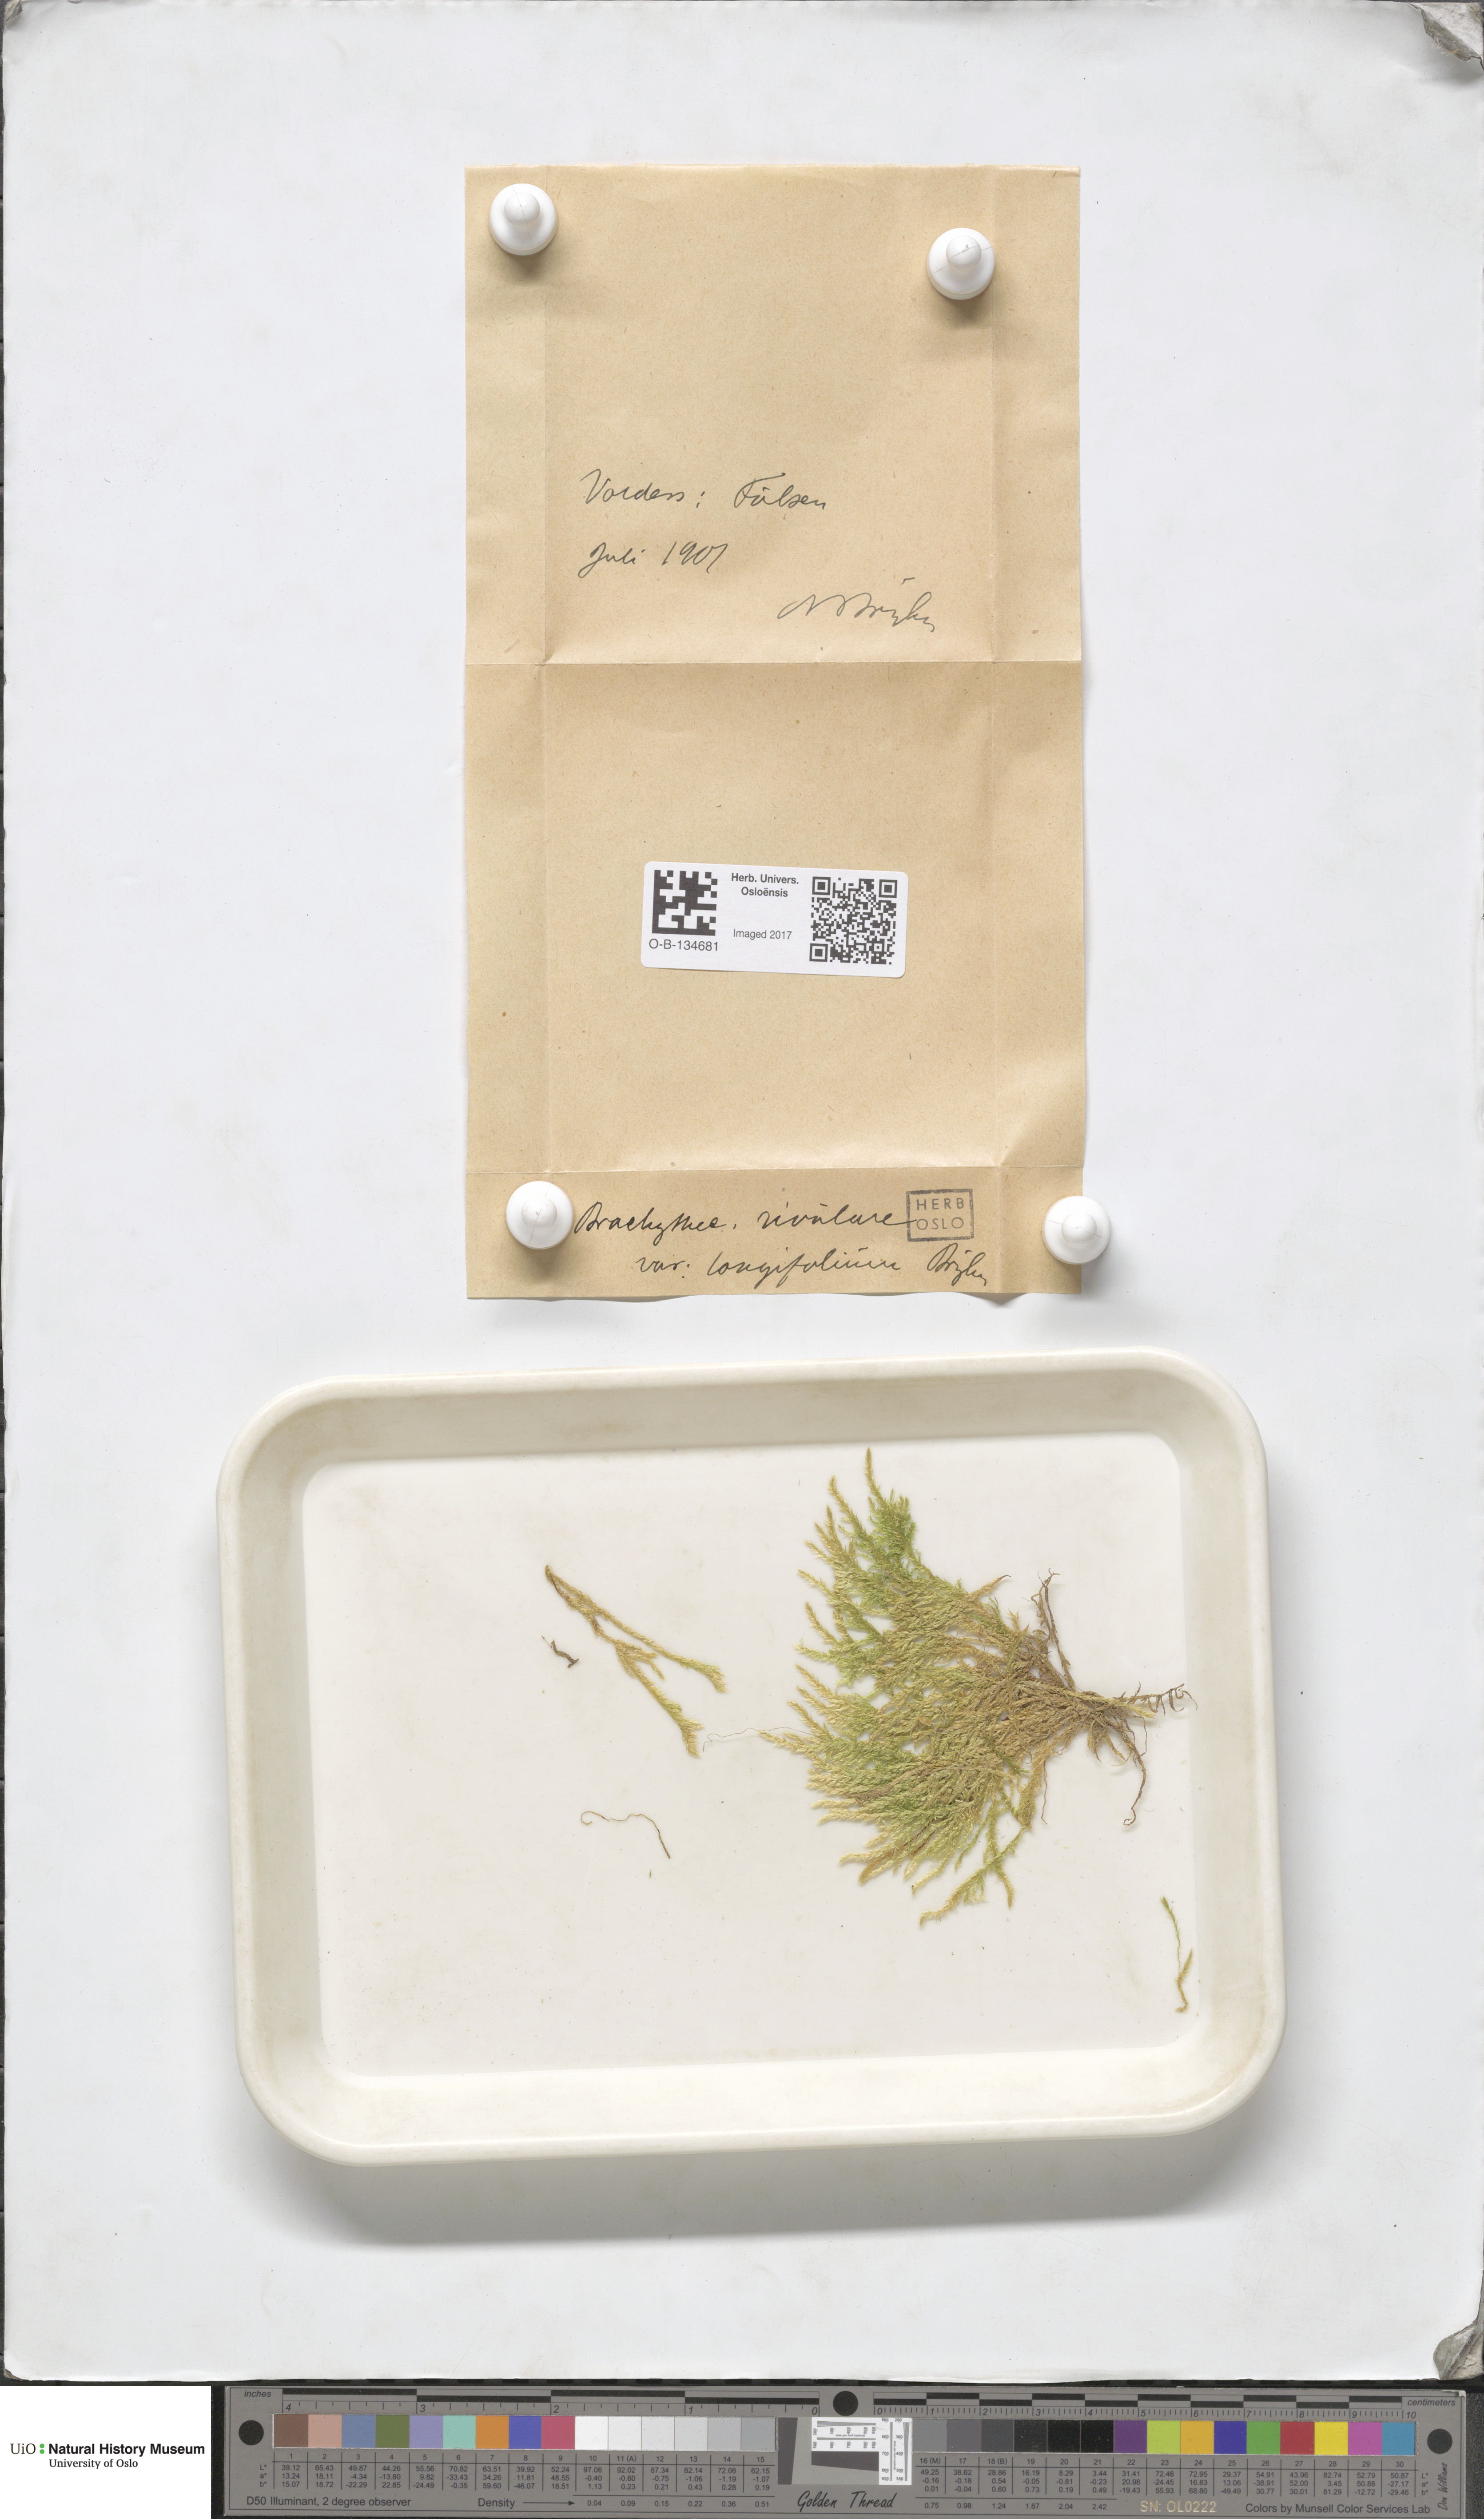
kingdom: Plantae
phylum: Bryophyta
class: Bryopsida
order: Hypnales
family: Brachytheciaceae
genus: Brachythecium
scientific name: Brachythecium rivulare
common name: River ragged moss
